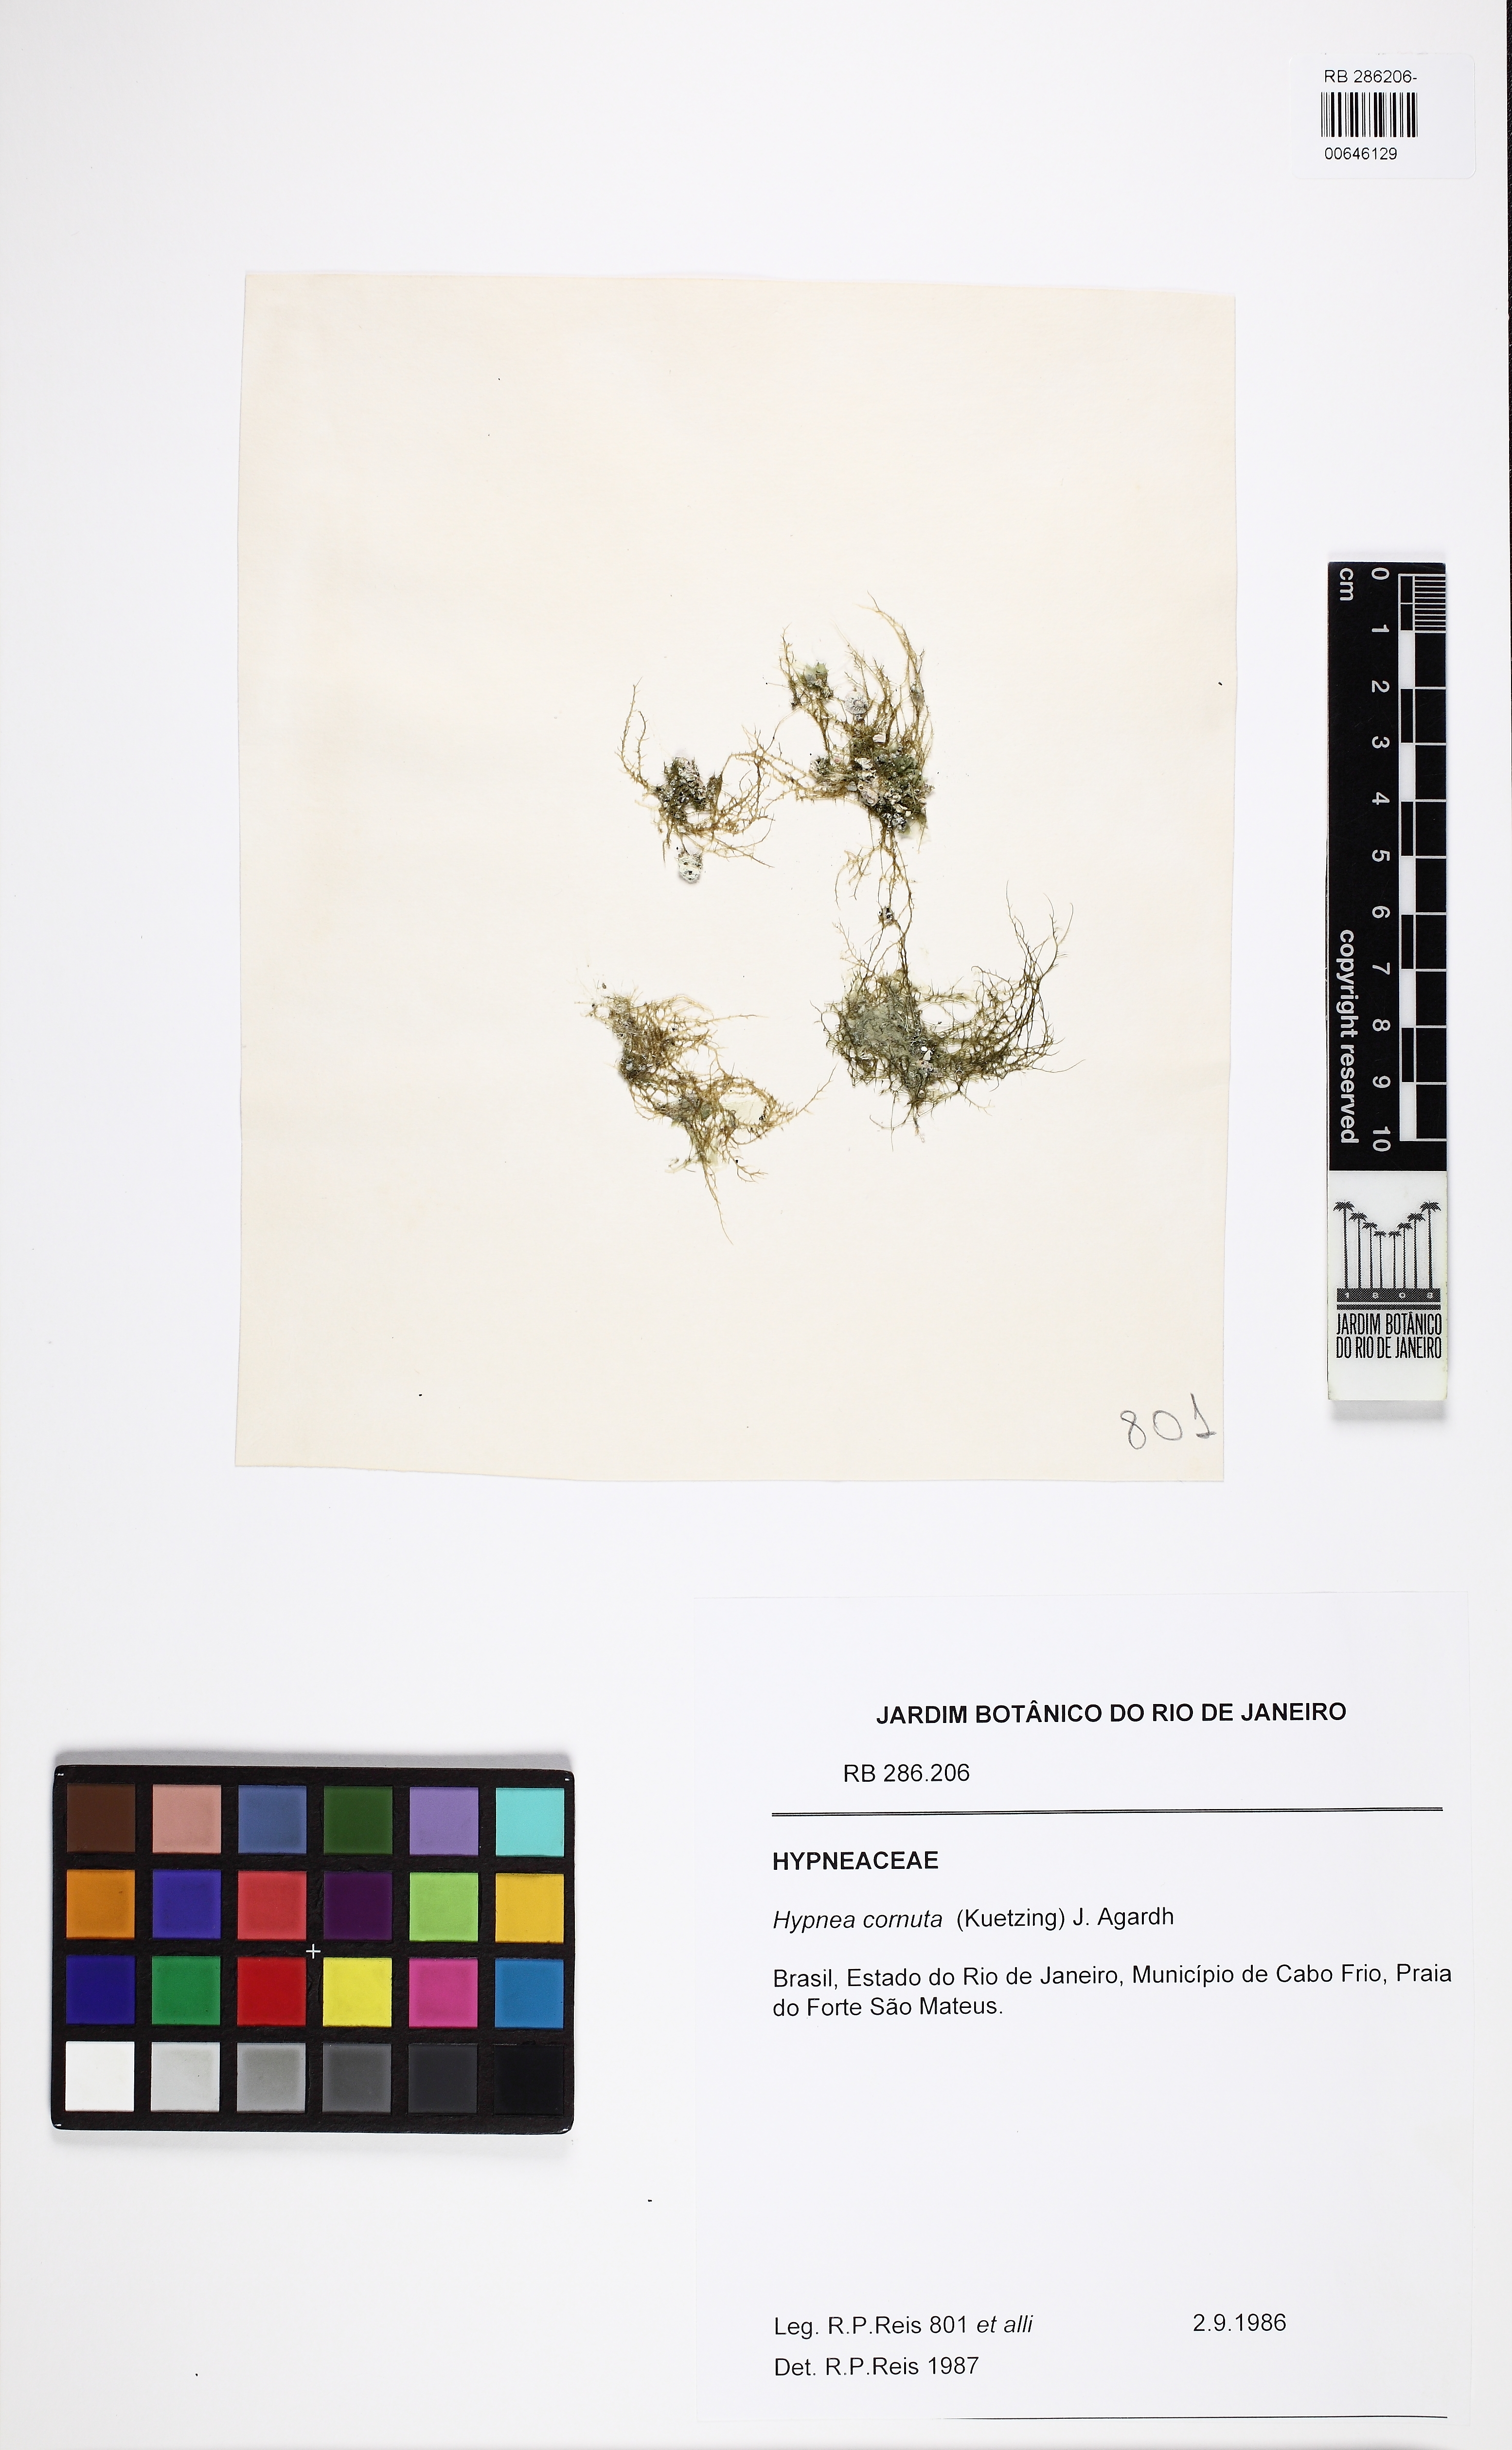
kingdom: Plantae
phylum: Rhodophyta
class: Florideophyceae
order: Gigartinales
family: Cystocloniaceae
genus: Hypnea
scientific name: Hypnea cornuta
